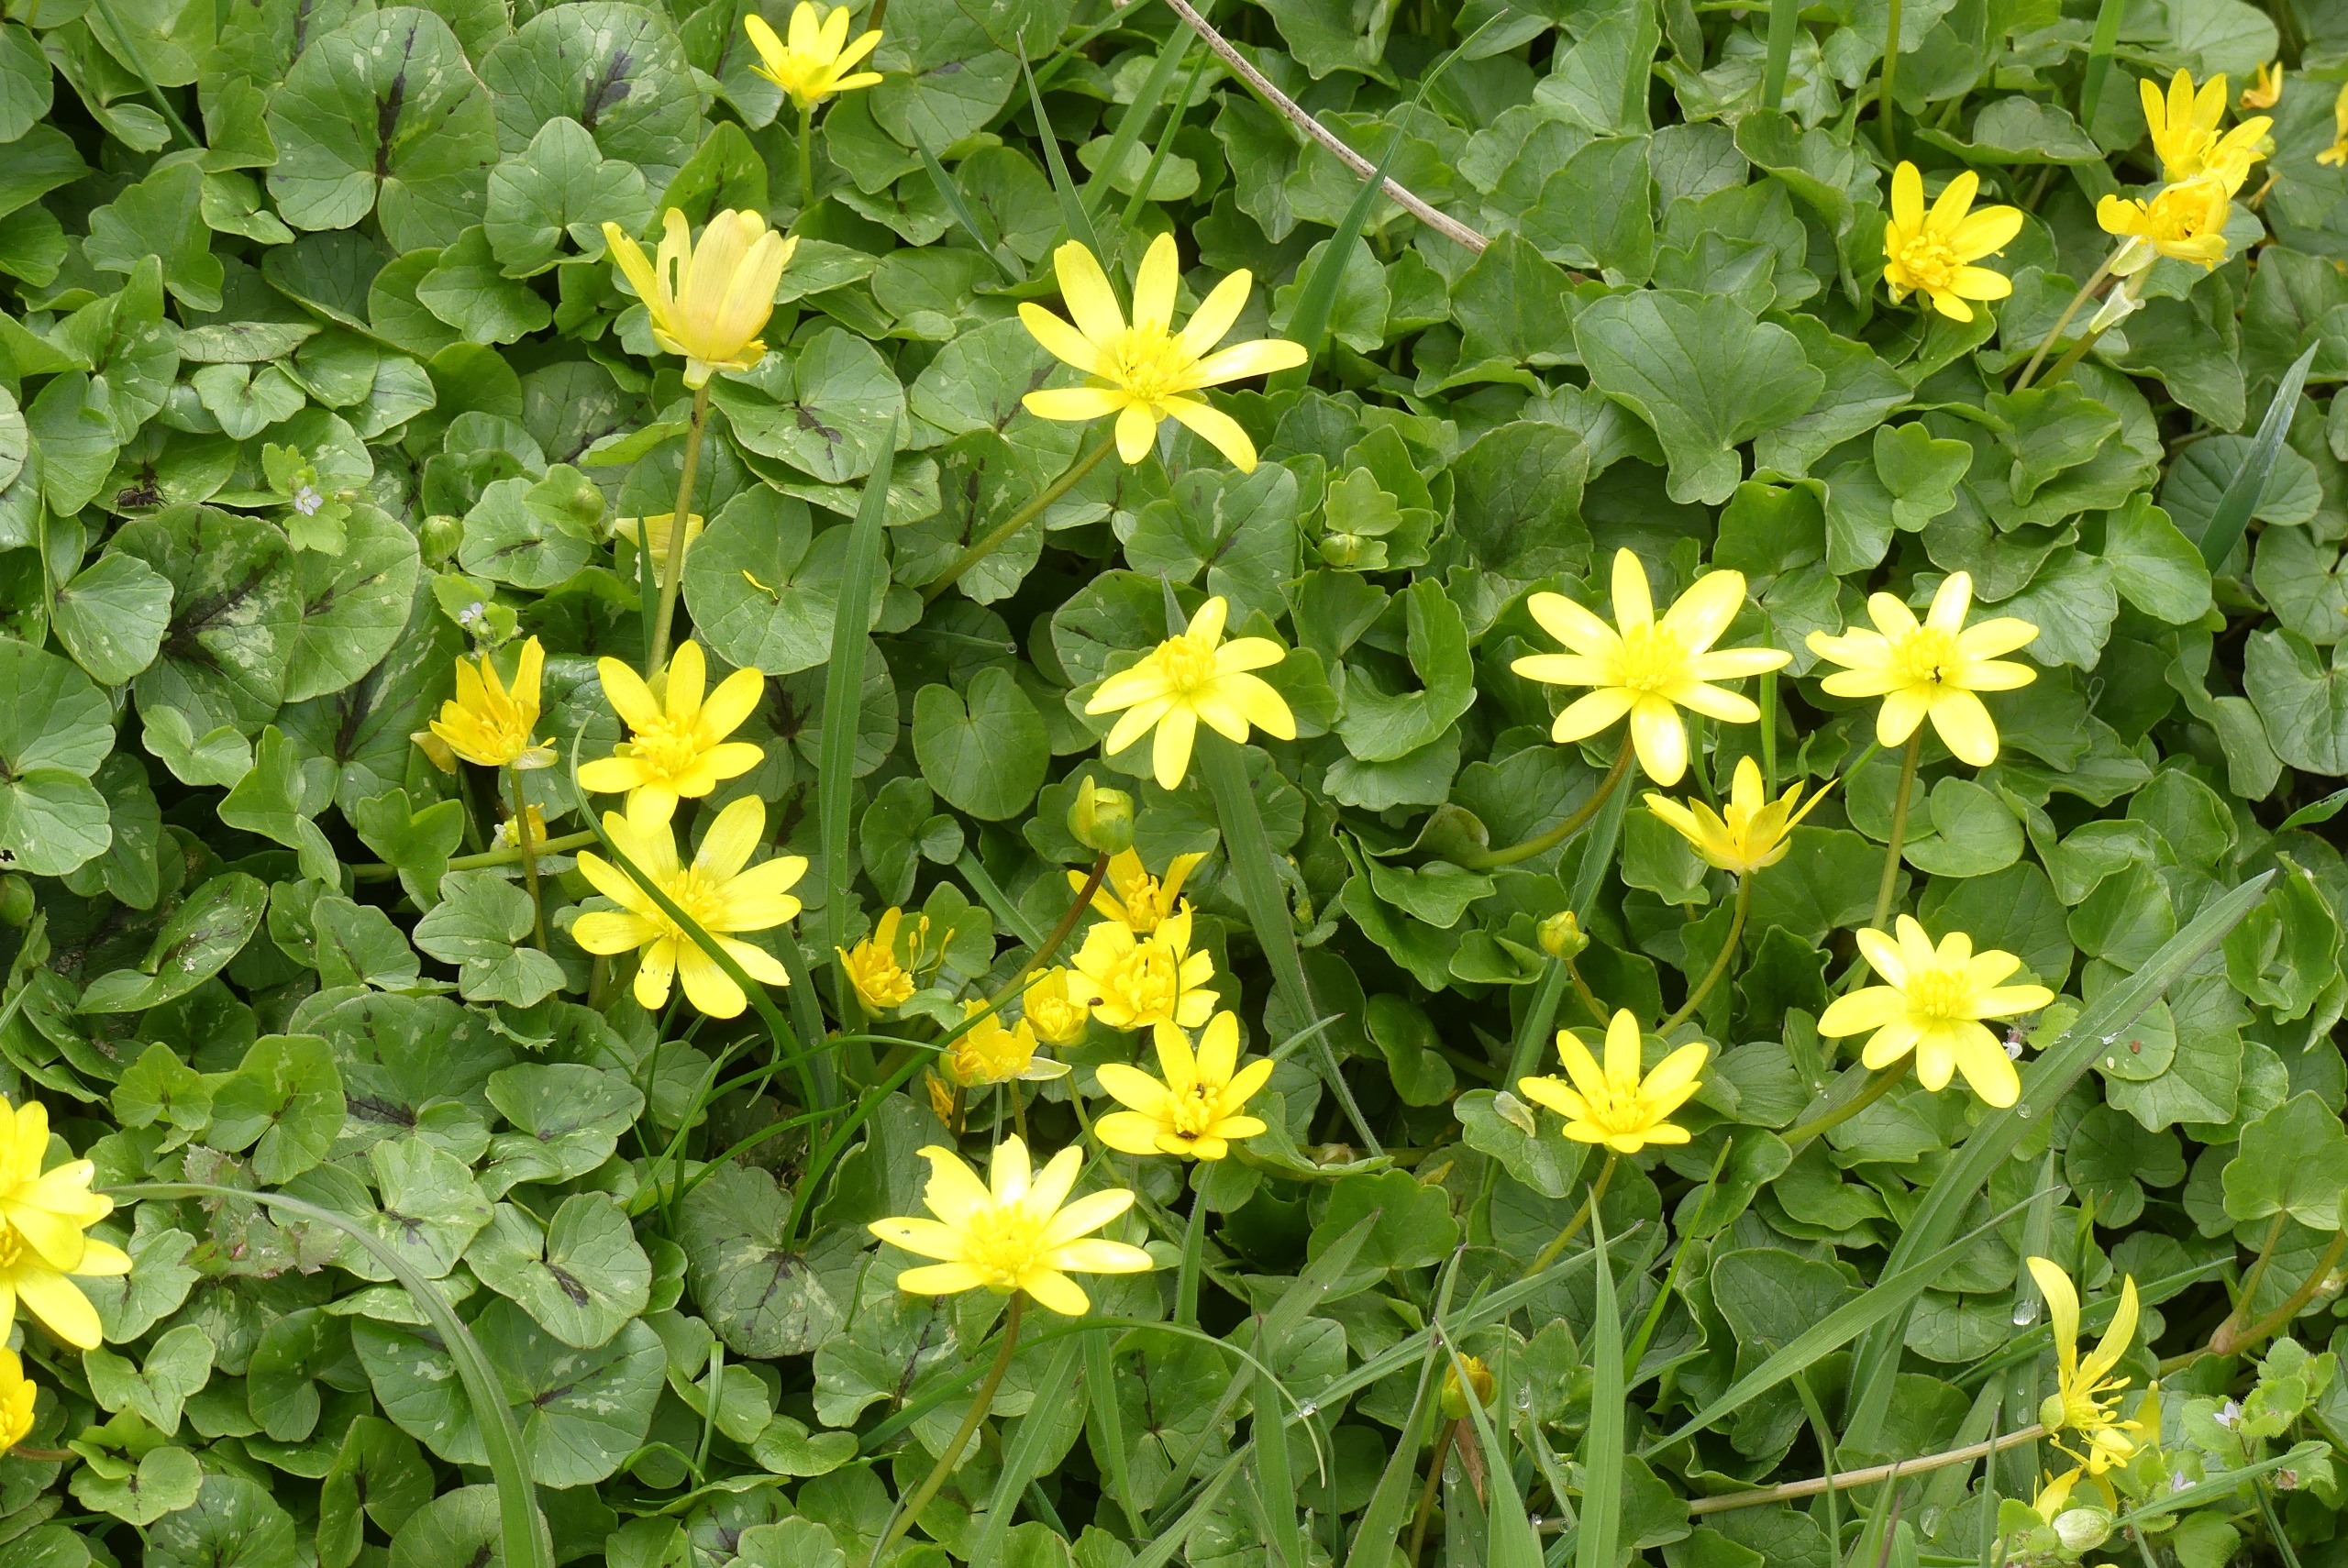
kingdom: Plantae
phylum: Tracheophyta
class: Magnoliopsida
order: Ranunculales
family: Ranunculaceae
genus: Ficaria
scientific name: Ficaria verna
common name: Vorterod
